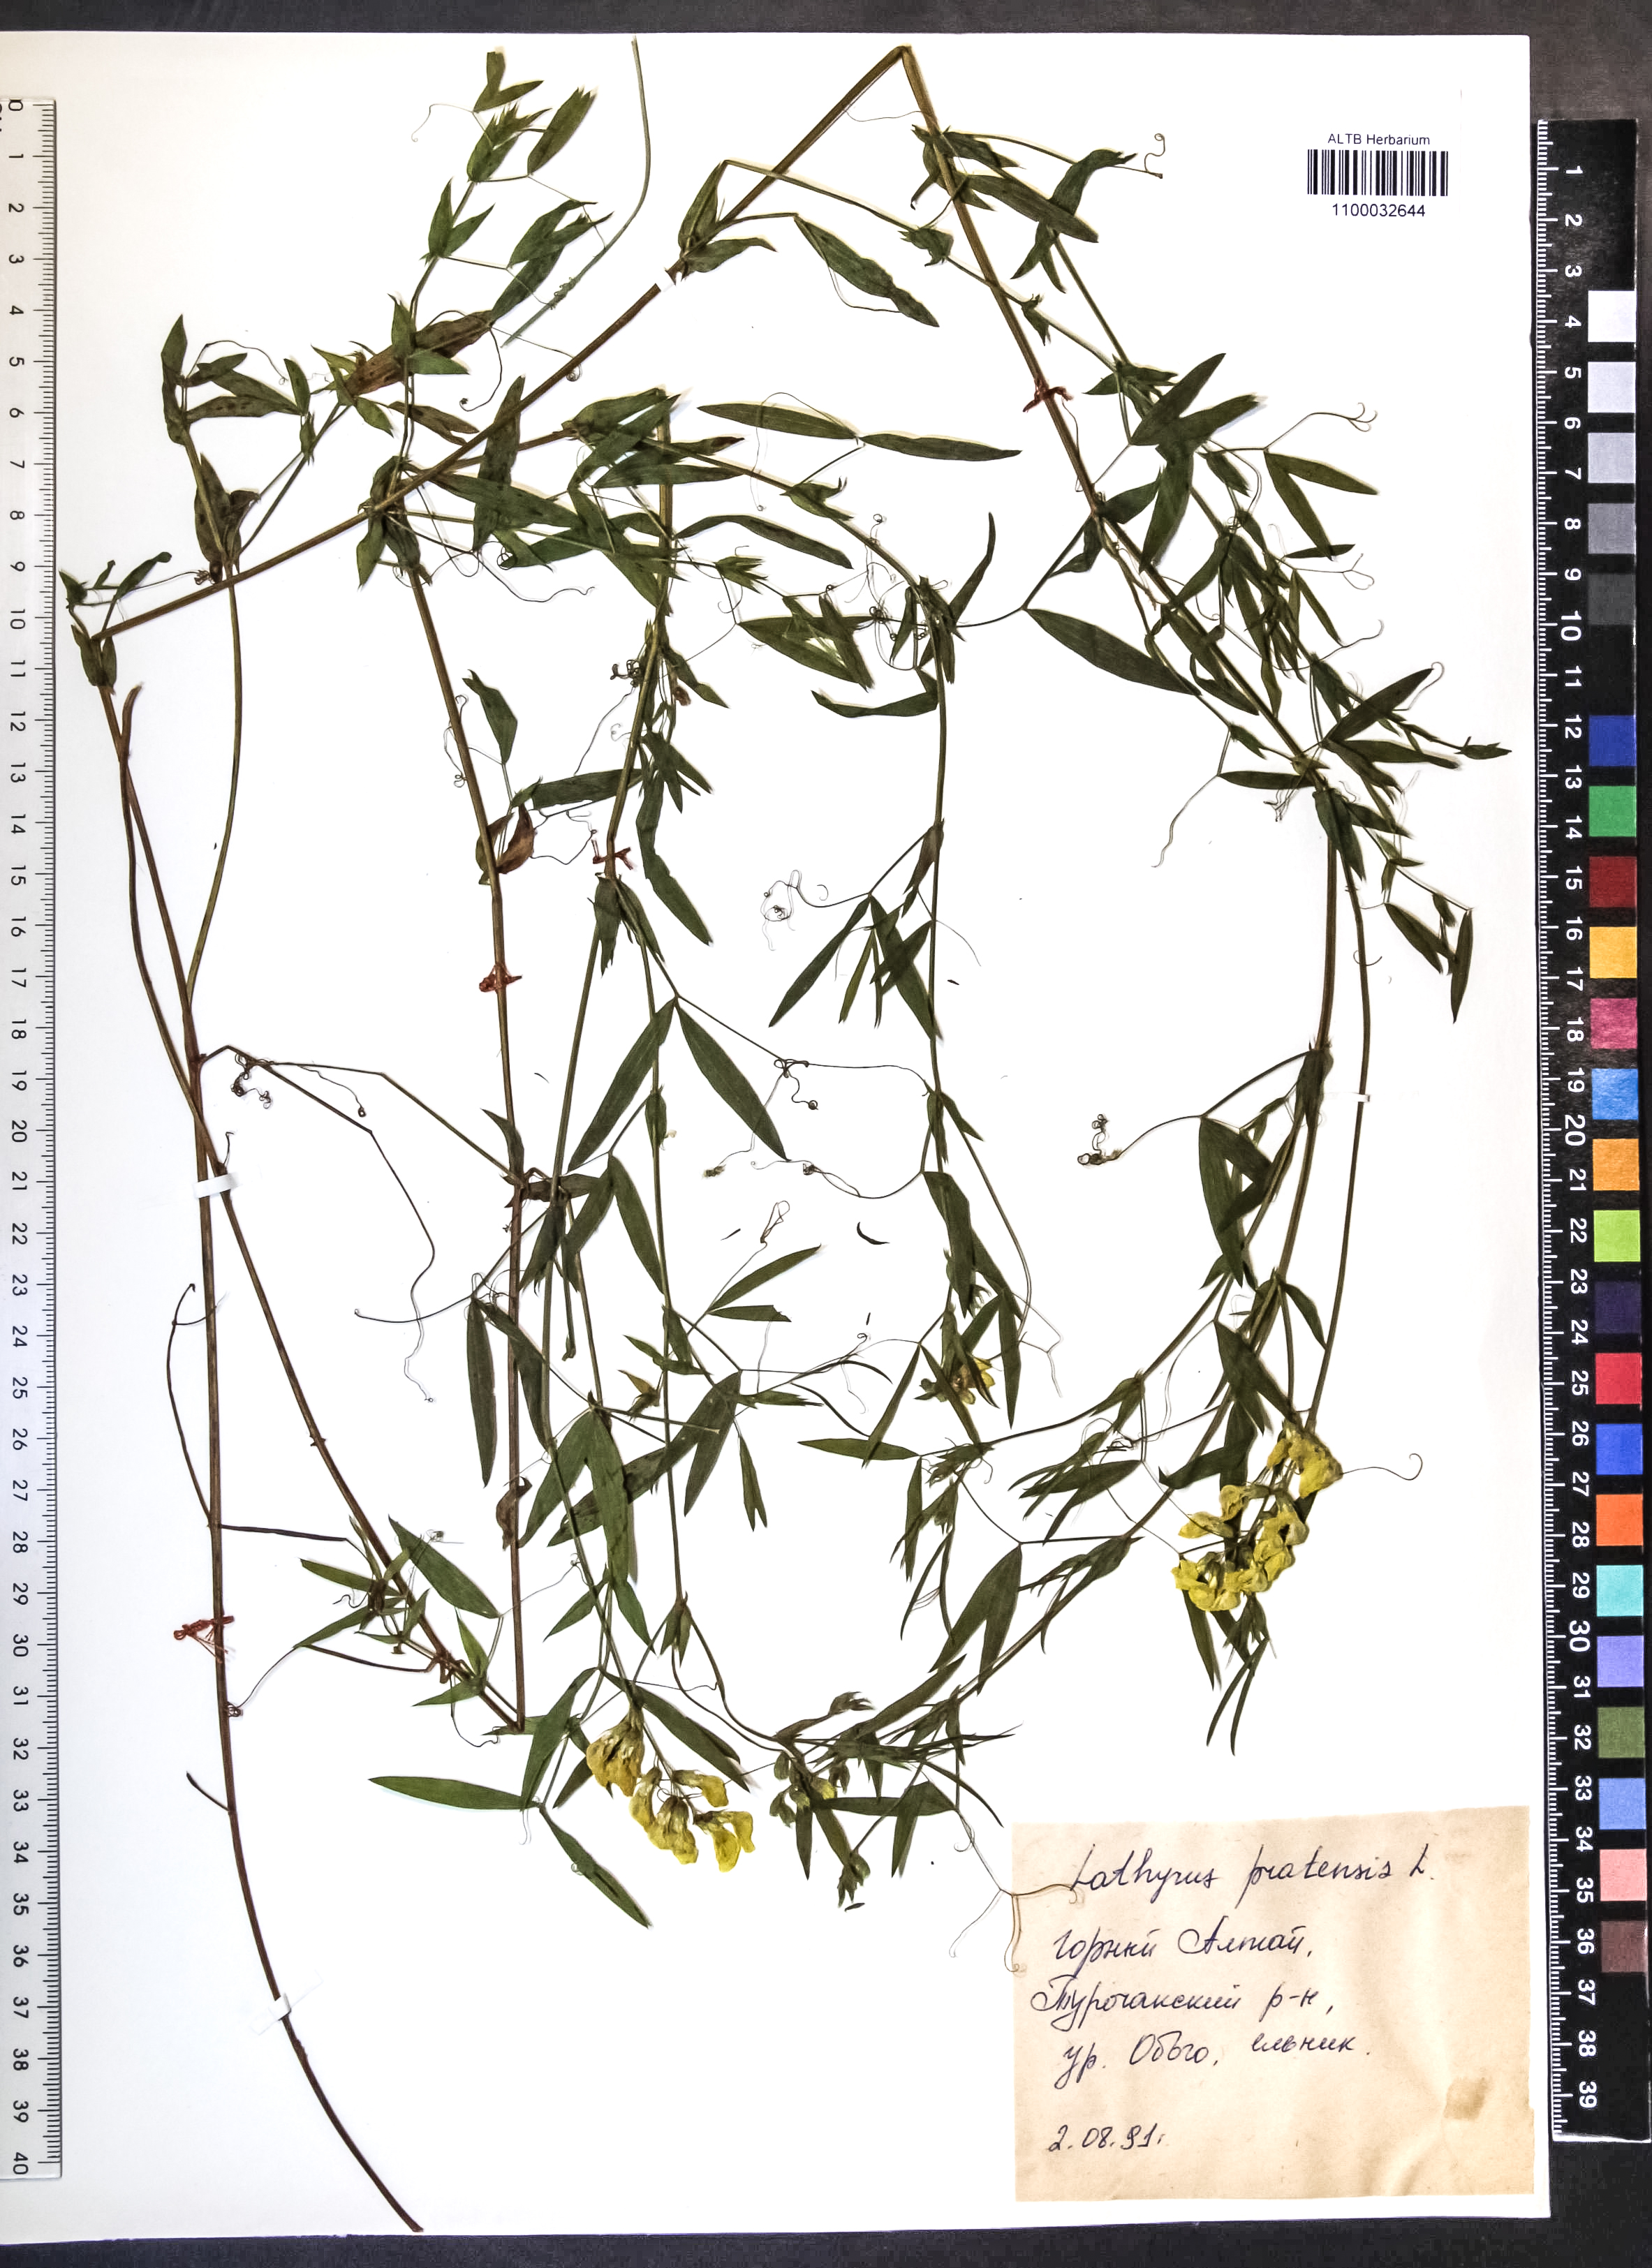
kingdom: Plantae
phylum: Tracheophyta
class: Magnoliopsida
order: Fabales
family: Fabaceae
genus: Lathyrus
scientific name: Lathyrus pratensis
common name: Meadow vetchling
